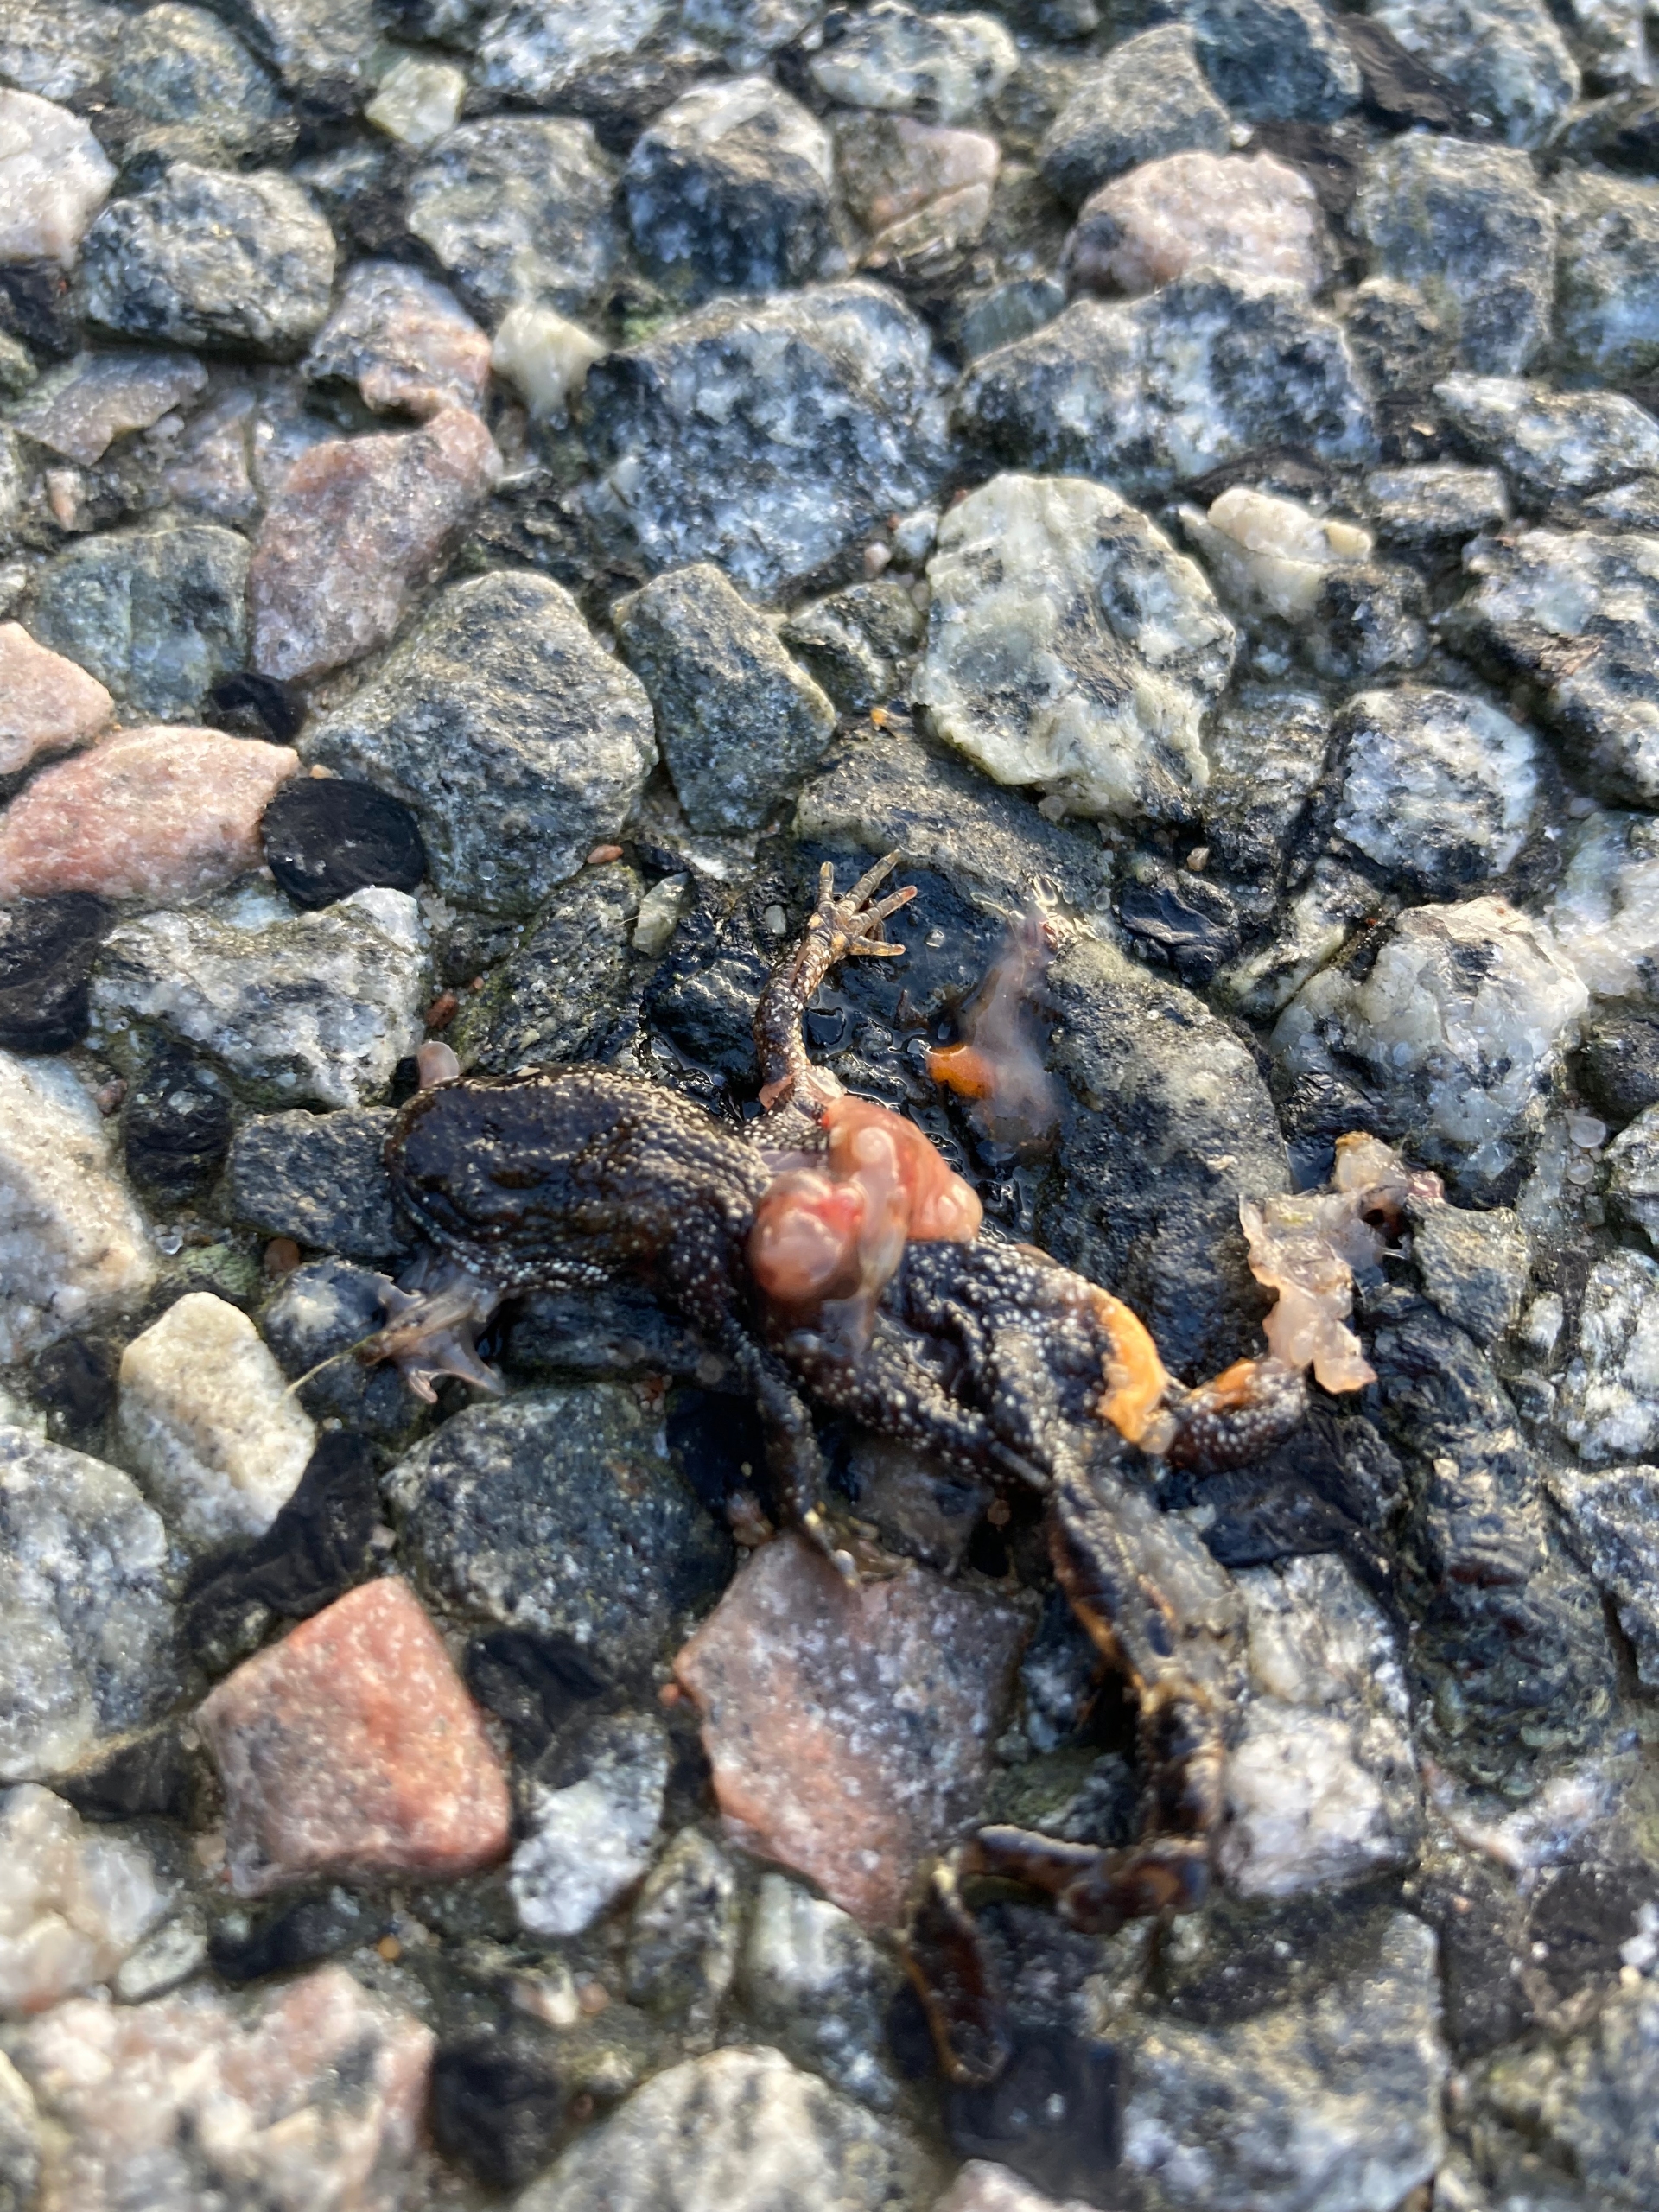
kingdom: Animalia
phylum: Chordata
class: Amphibia
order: Caudata
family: Salamandridae
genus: Triturus
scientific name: Triturus cristatus
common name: Stor vandsalamander
